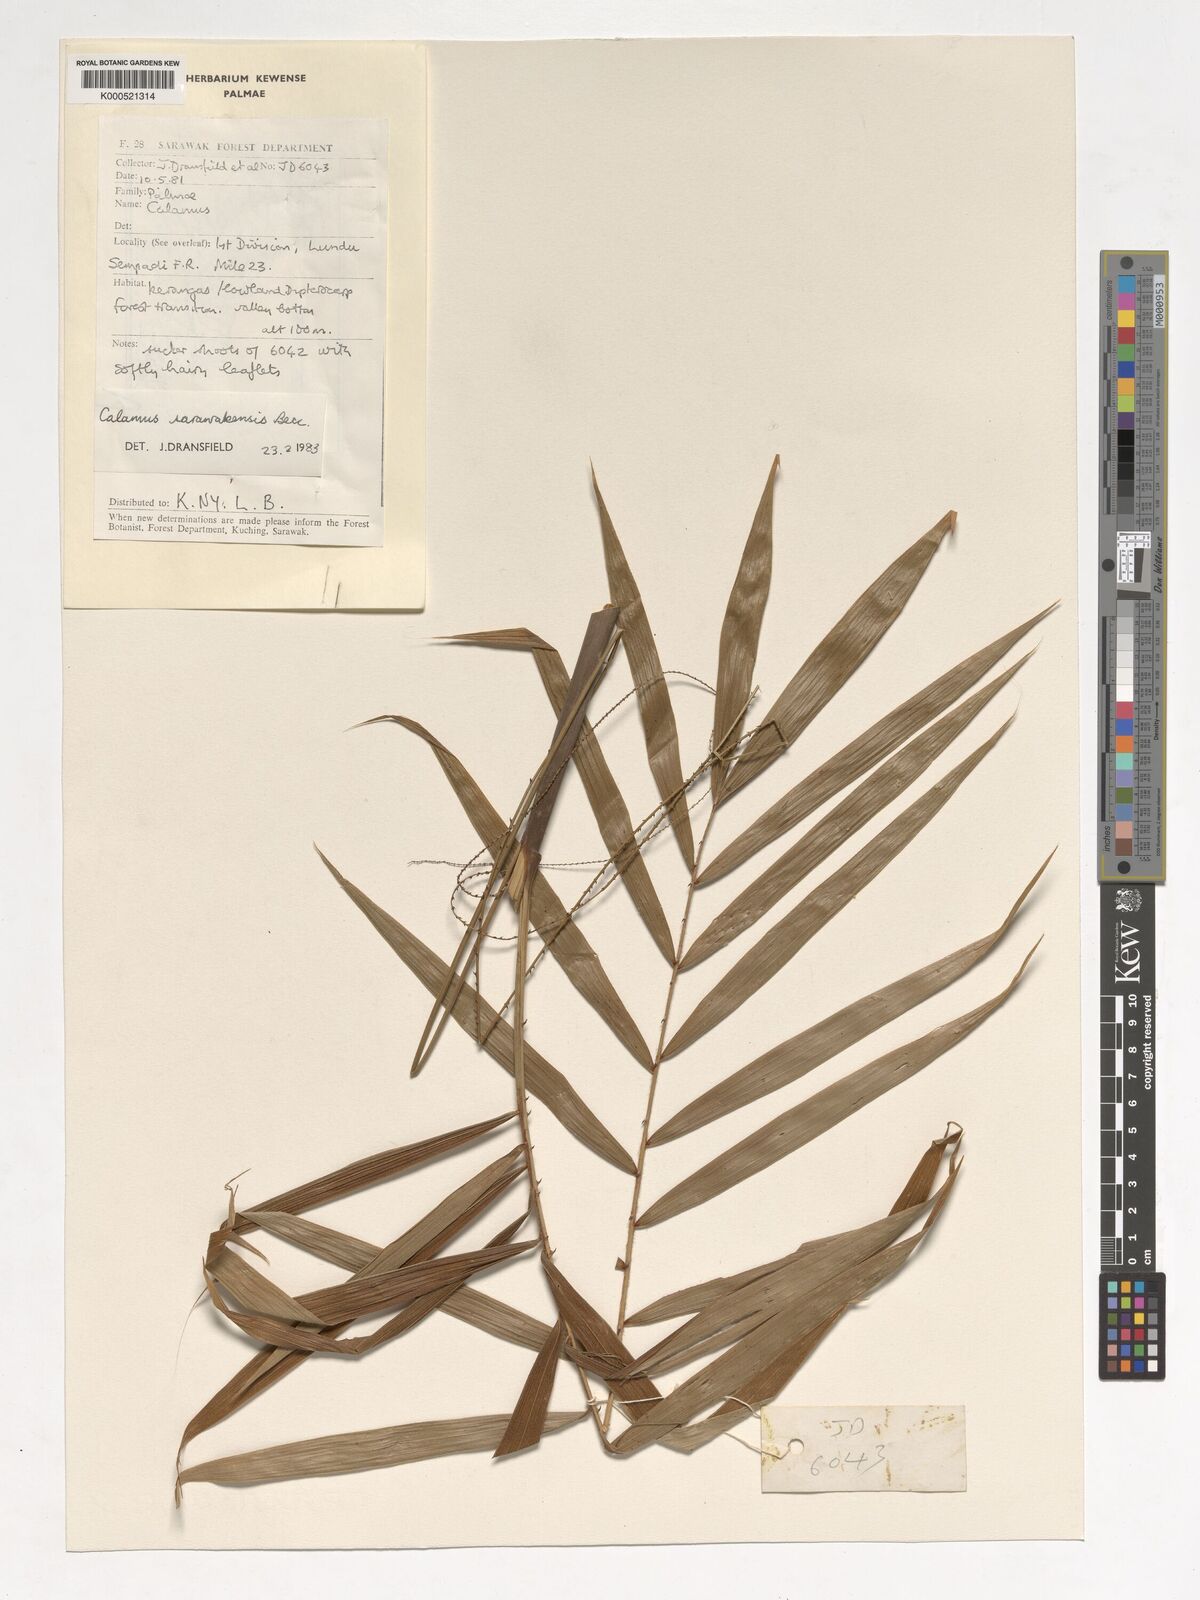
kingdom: Plantae
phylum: Tracheophyta
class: Liliopsida
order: Arecales
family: Arecaceae
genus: Calamus
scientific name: Calamus sarawakensis
